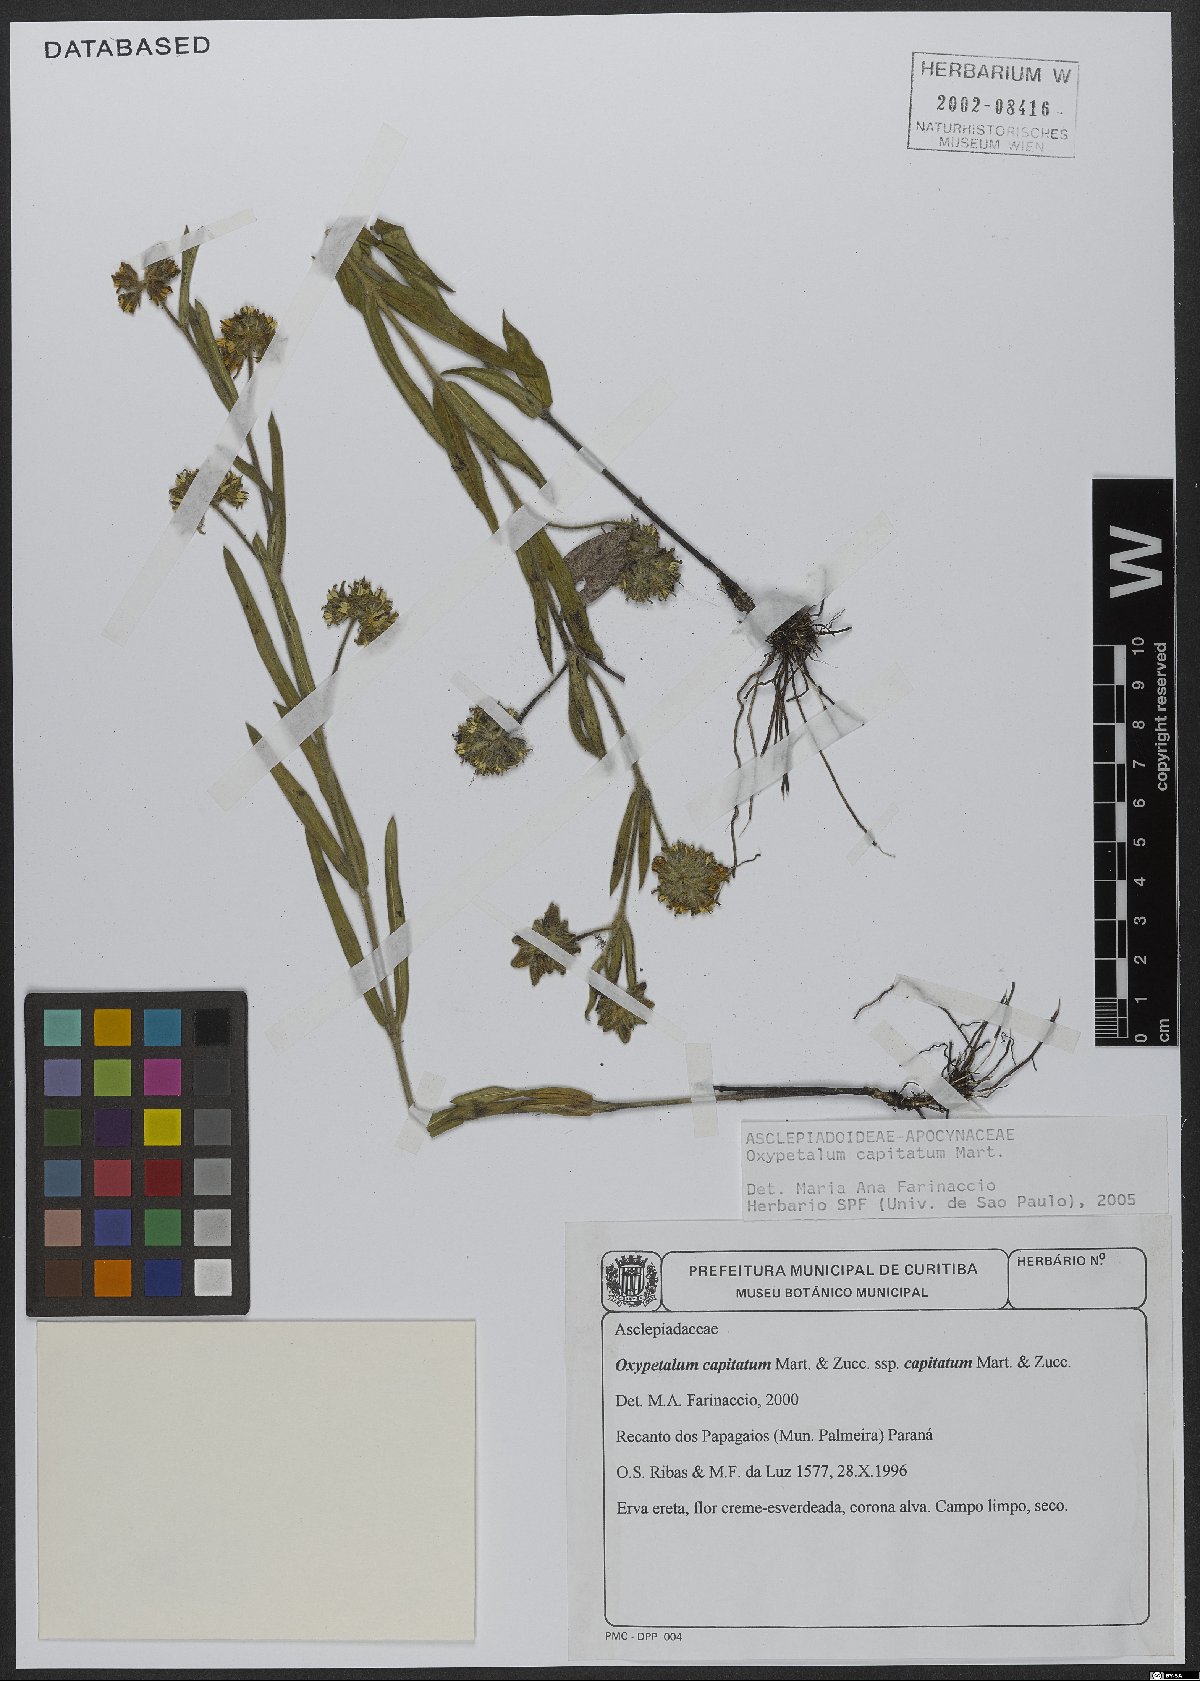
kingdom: Plantae
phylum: Tracheophyta
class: Magnoliopsida
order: Gentianales
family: Apocynaceae
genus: Oxypetalum
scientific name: Oxypetalum capitatum
